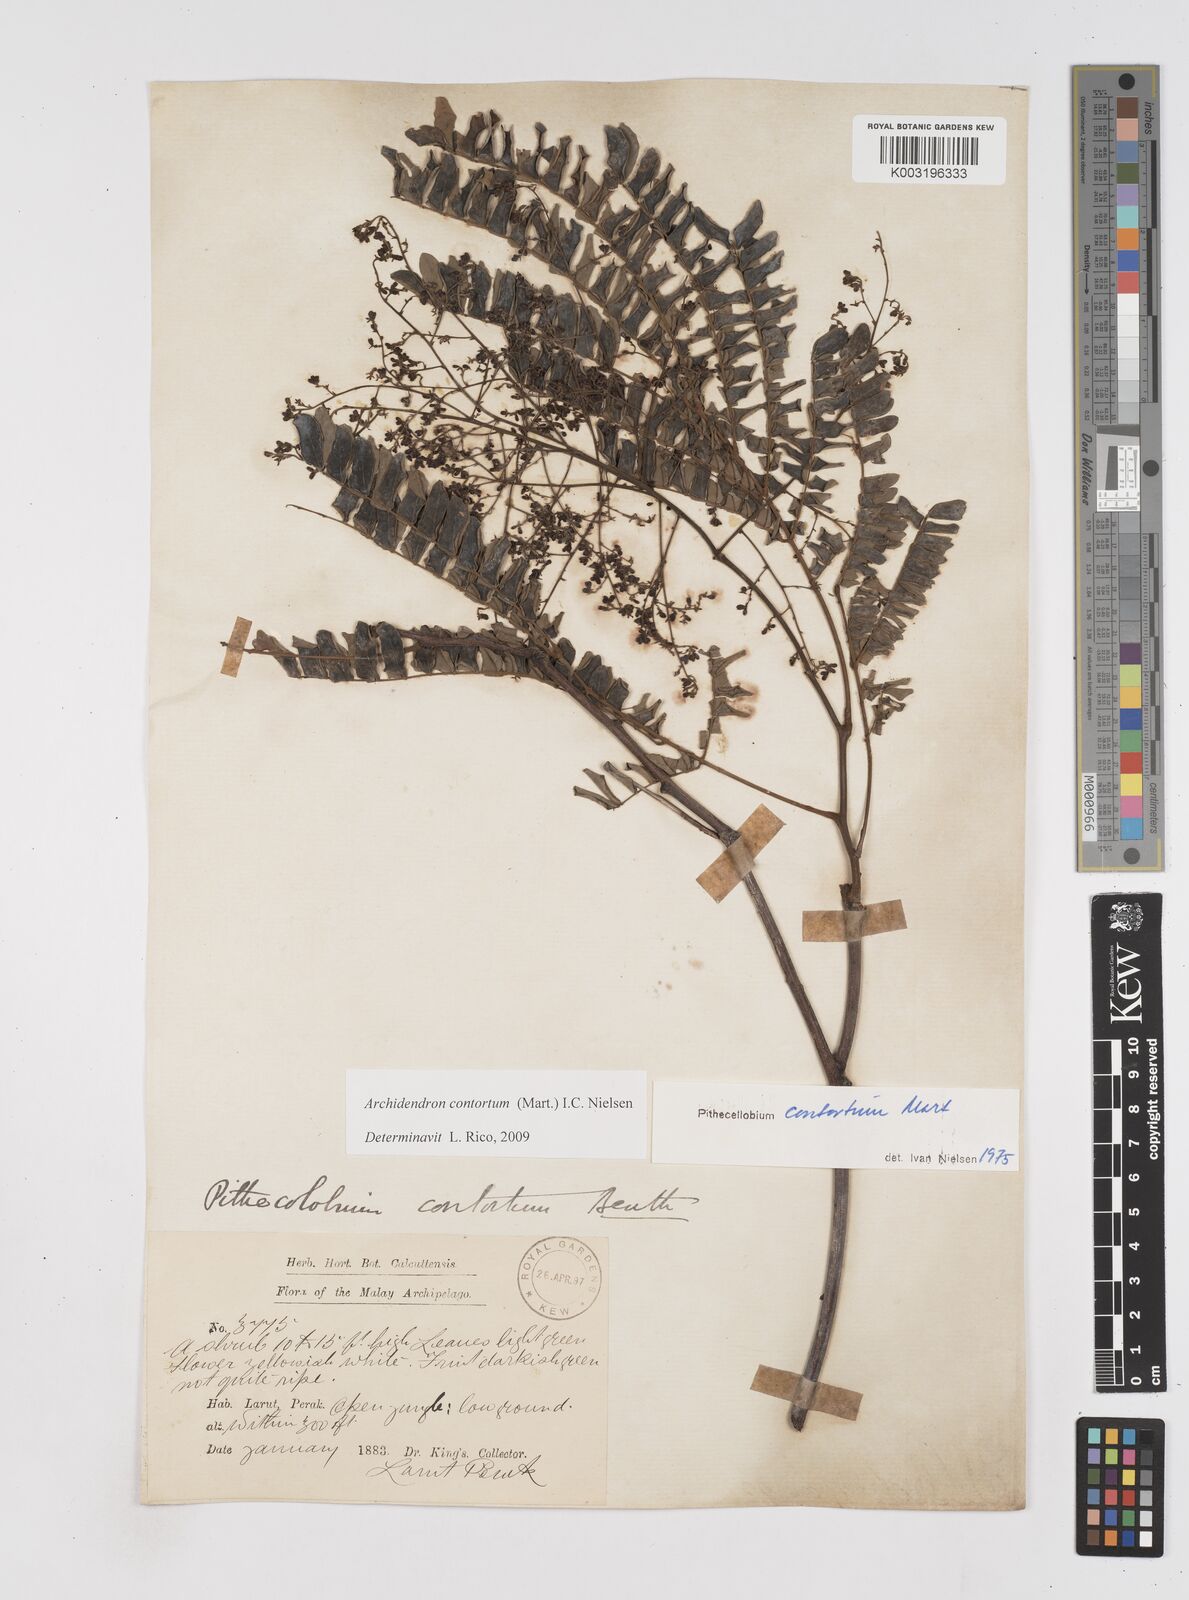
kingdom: Plantae
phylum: Tracheophyta
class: Magnoliopsida
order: Fabales
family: Fabaceae
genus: Archidendron
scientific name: Archidendron contortum
